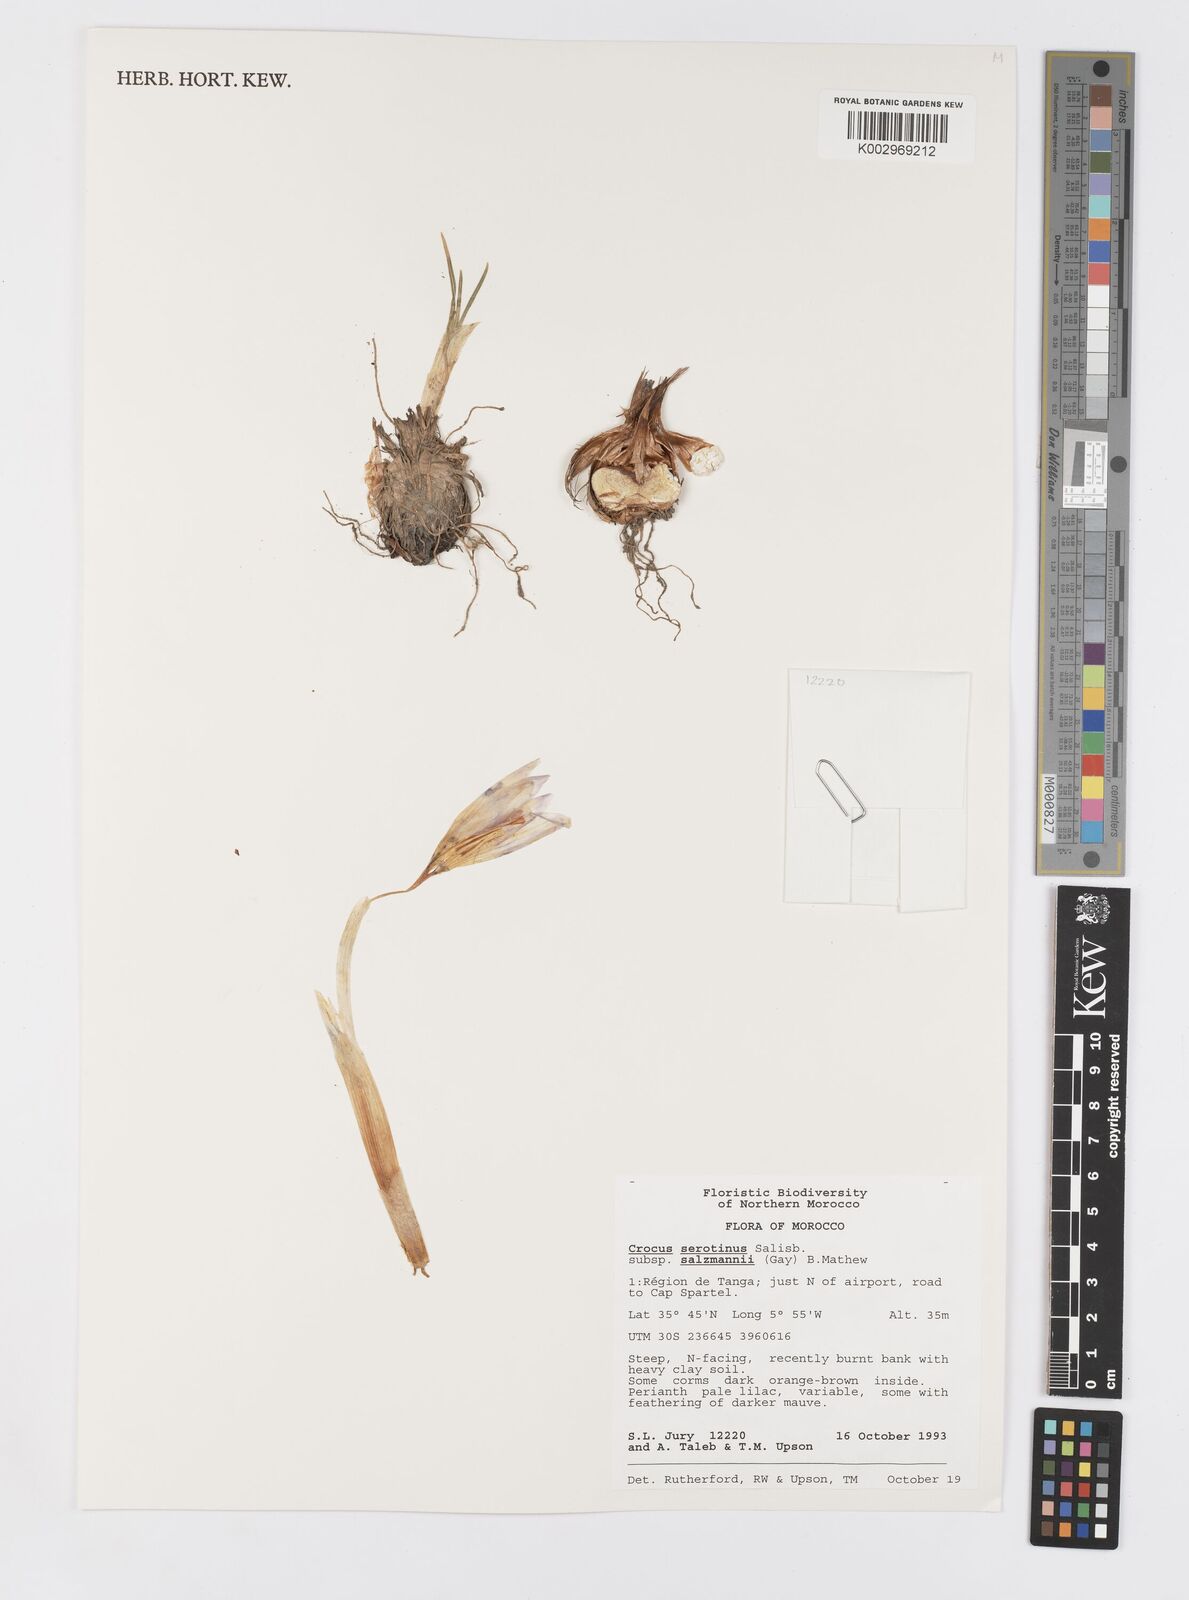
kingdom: Plantae
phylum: Tracheophyta
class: Liliopsida
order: Asparagales
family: Iridaceae
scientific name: Iridaceae
